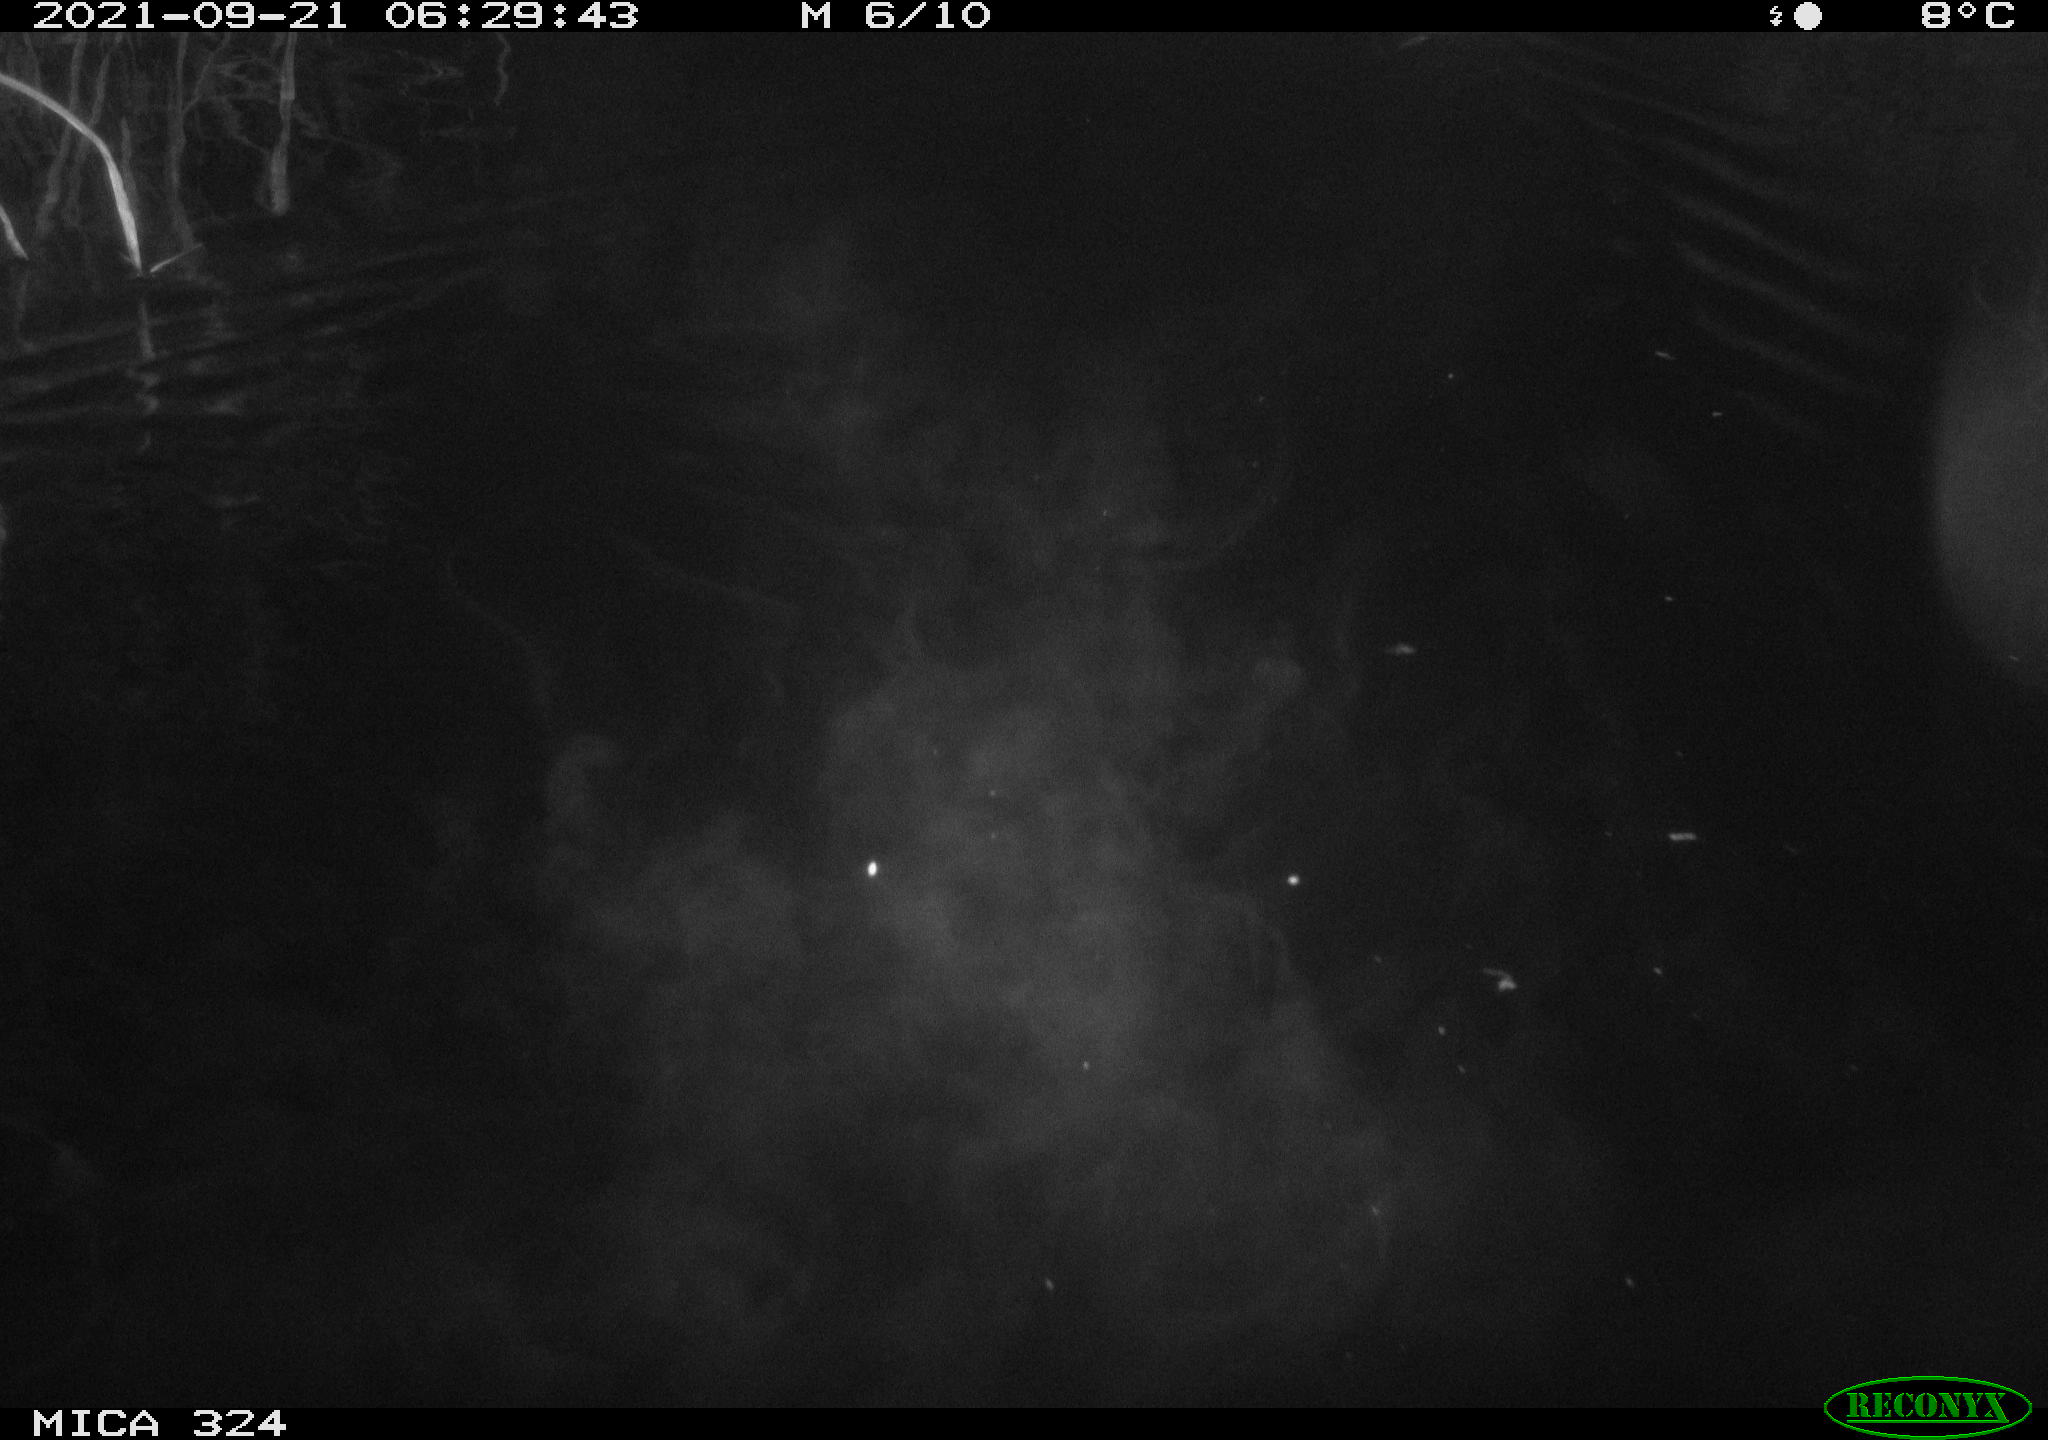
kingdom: Animalia
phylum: Chordata
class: Mammalia
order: Rodentia
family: Cricetidae
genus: Ondatra
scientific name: Ondatra zibethicus
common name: Muskrat
